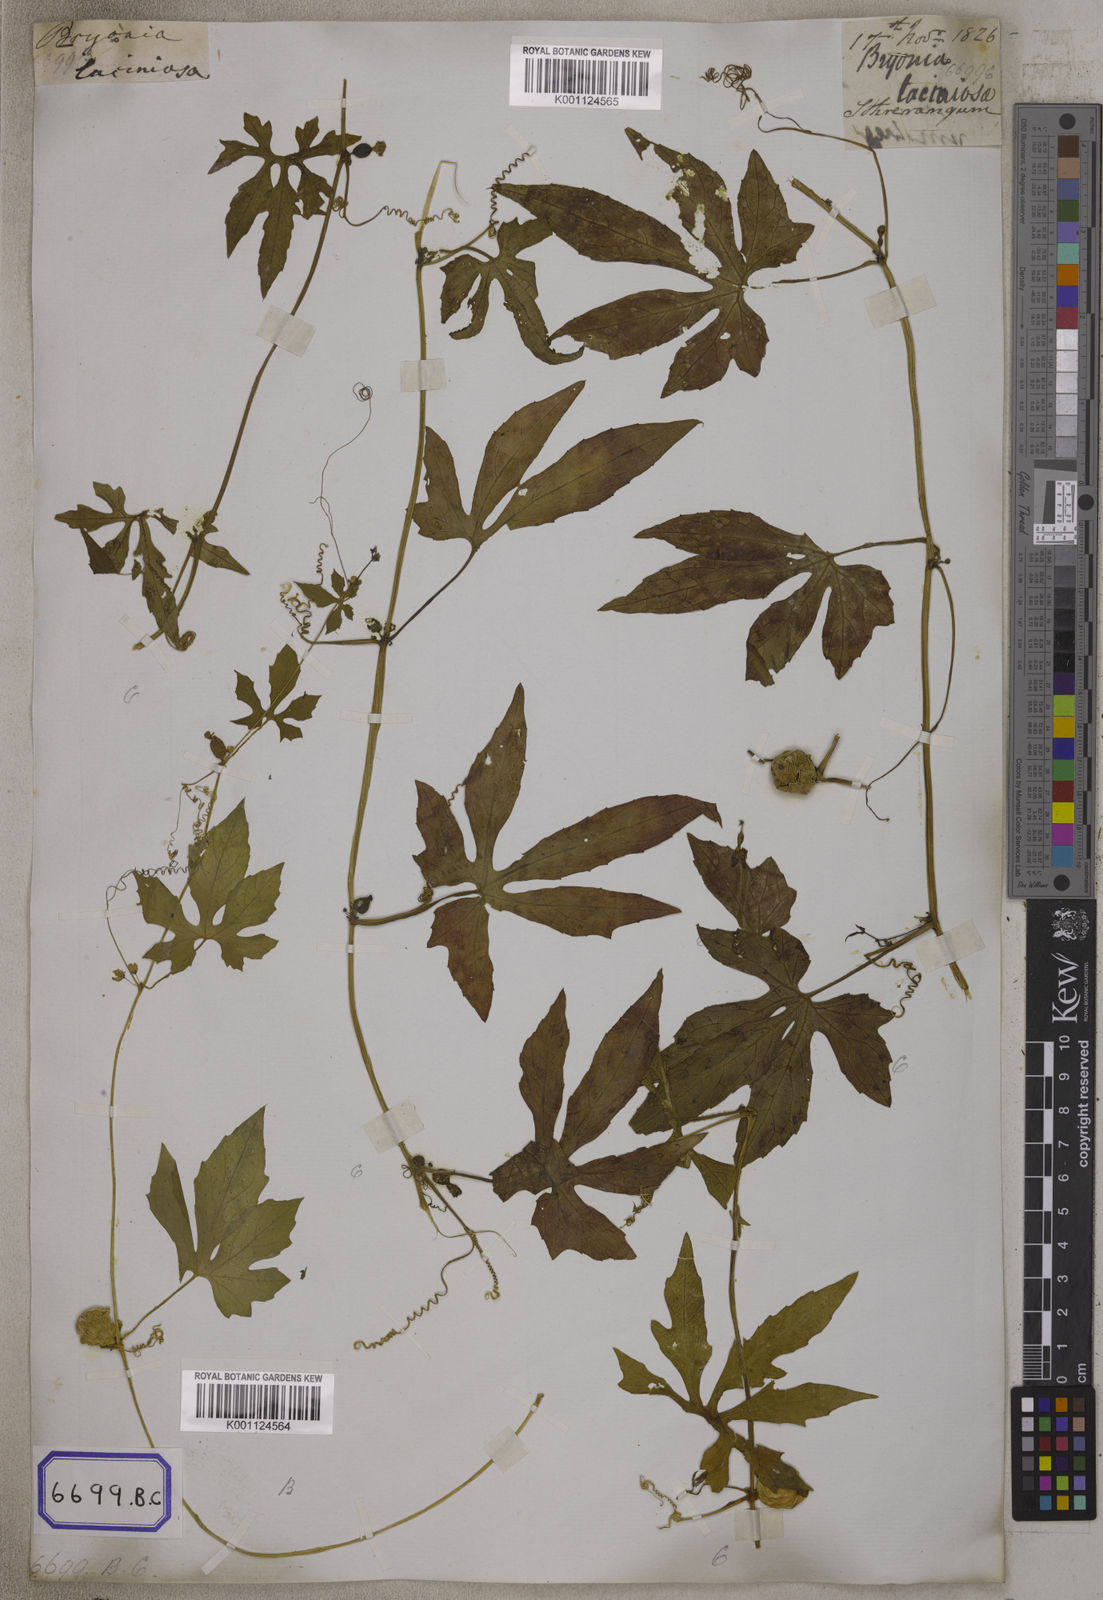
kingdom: Plantae
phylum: Tracheophyta
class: Magnoliopsida
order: Cucurbitales
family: Cucurbitaceae
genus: Diplocyclos
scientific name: Diplocyclos palmatus
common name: Striped-cucumber
